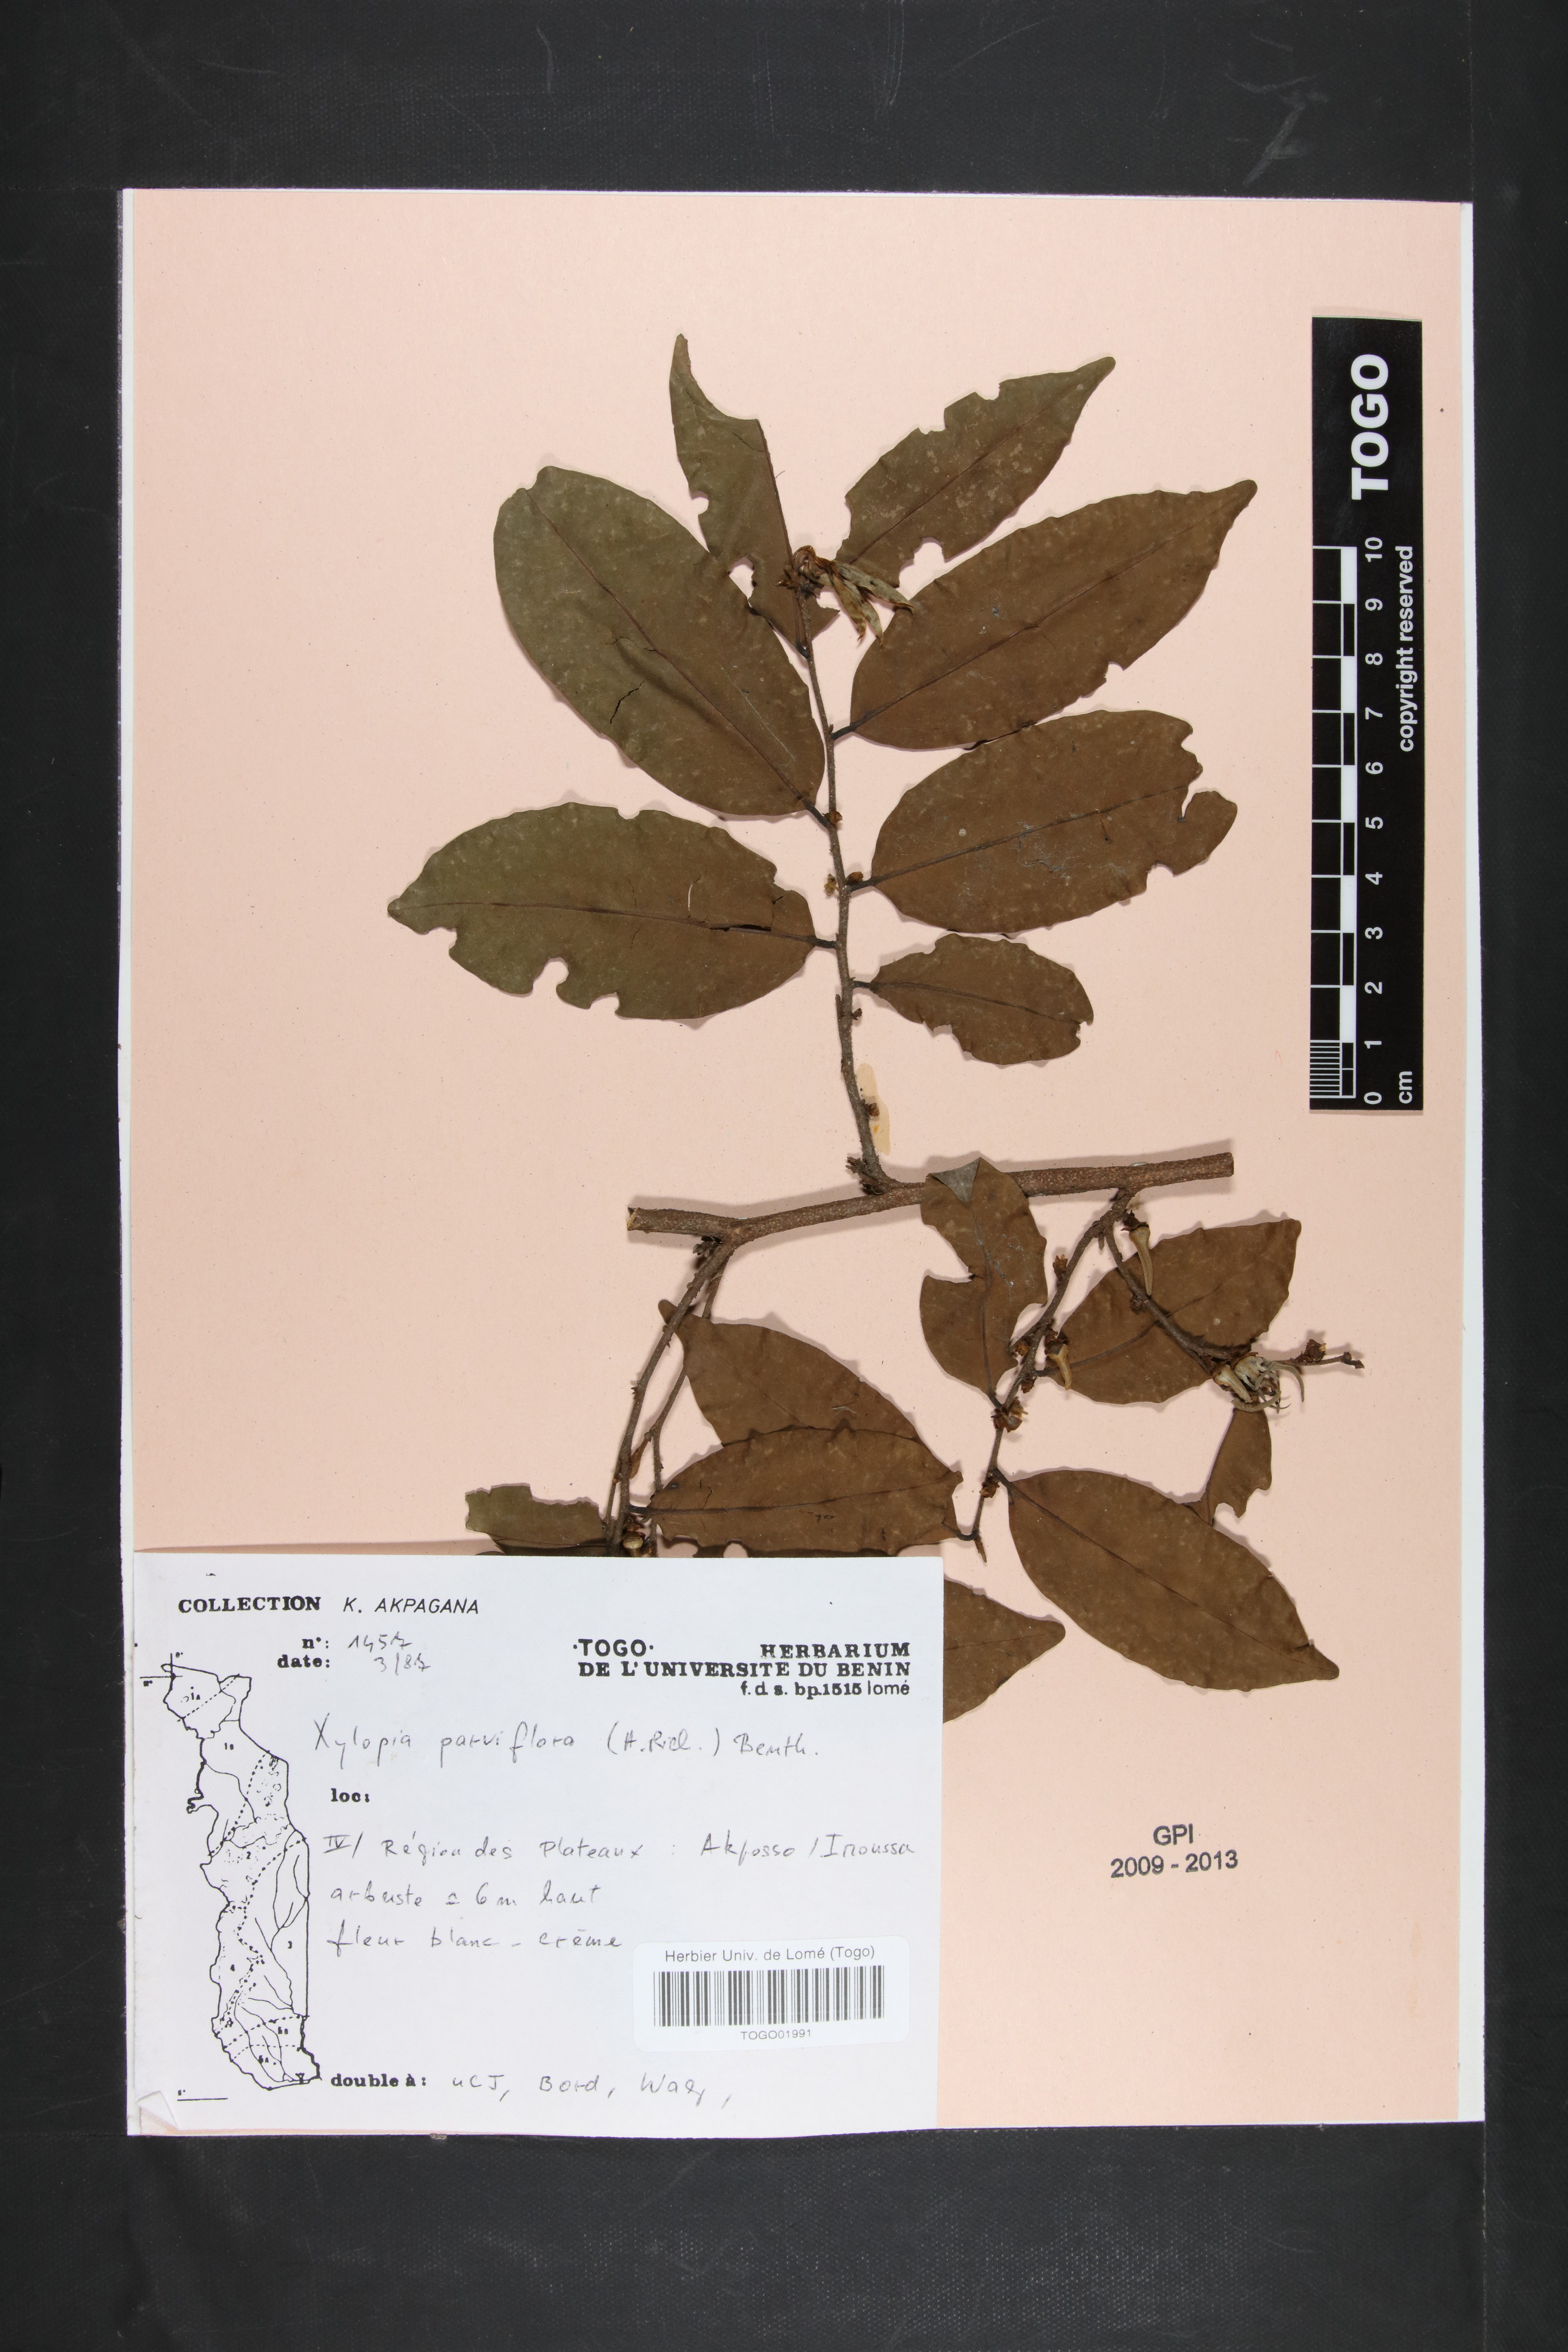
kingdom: Plantae
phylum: Tracheophyta
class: Magnoliopsida
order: Magnoliales
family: Annonaceae
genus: Xylopia
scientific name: Xylopia parviflora
